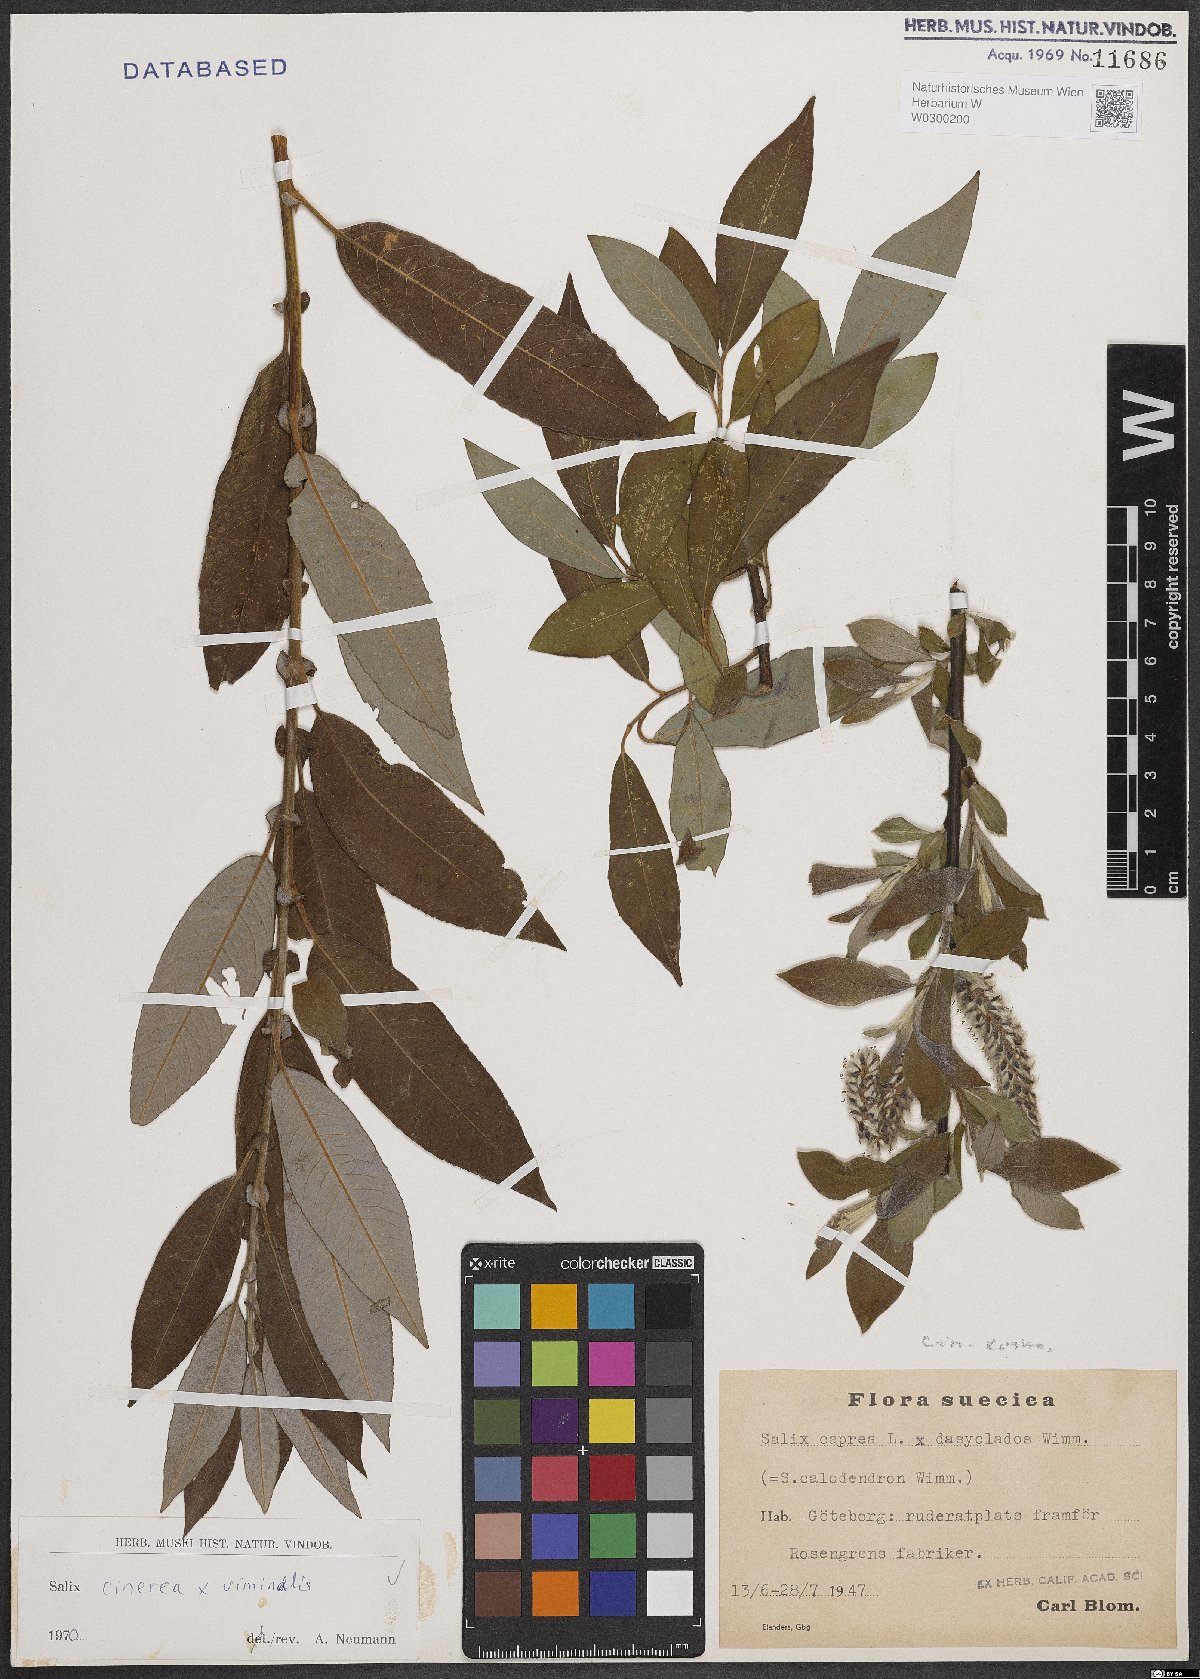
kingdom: Plantae
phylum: Tracheophyta
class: Magnoliopsida
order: Malpighiales
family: Salicaceae
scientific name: Salicaceae
